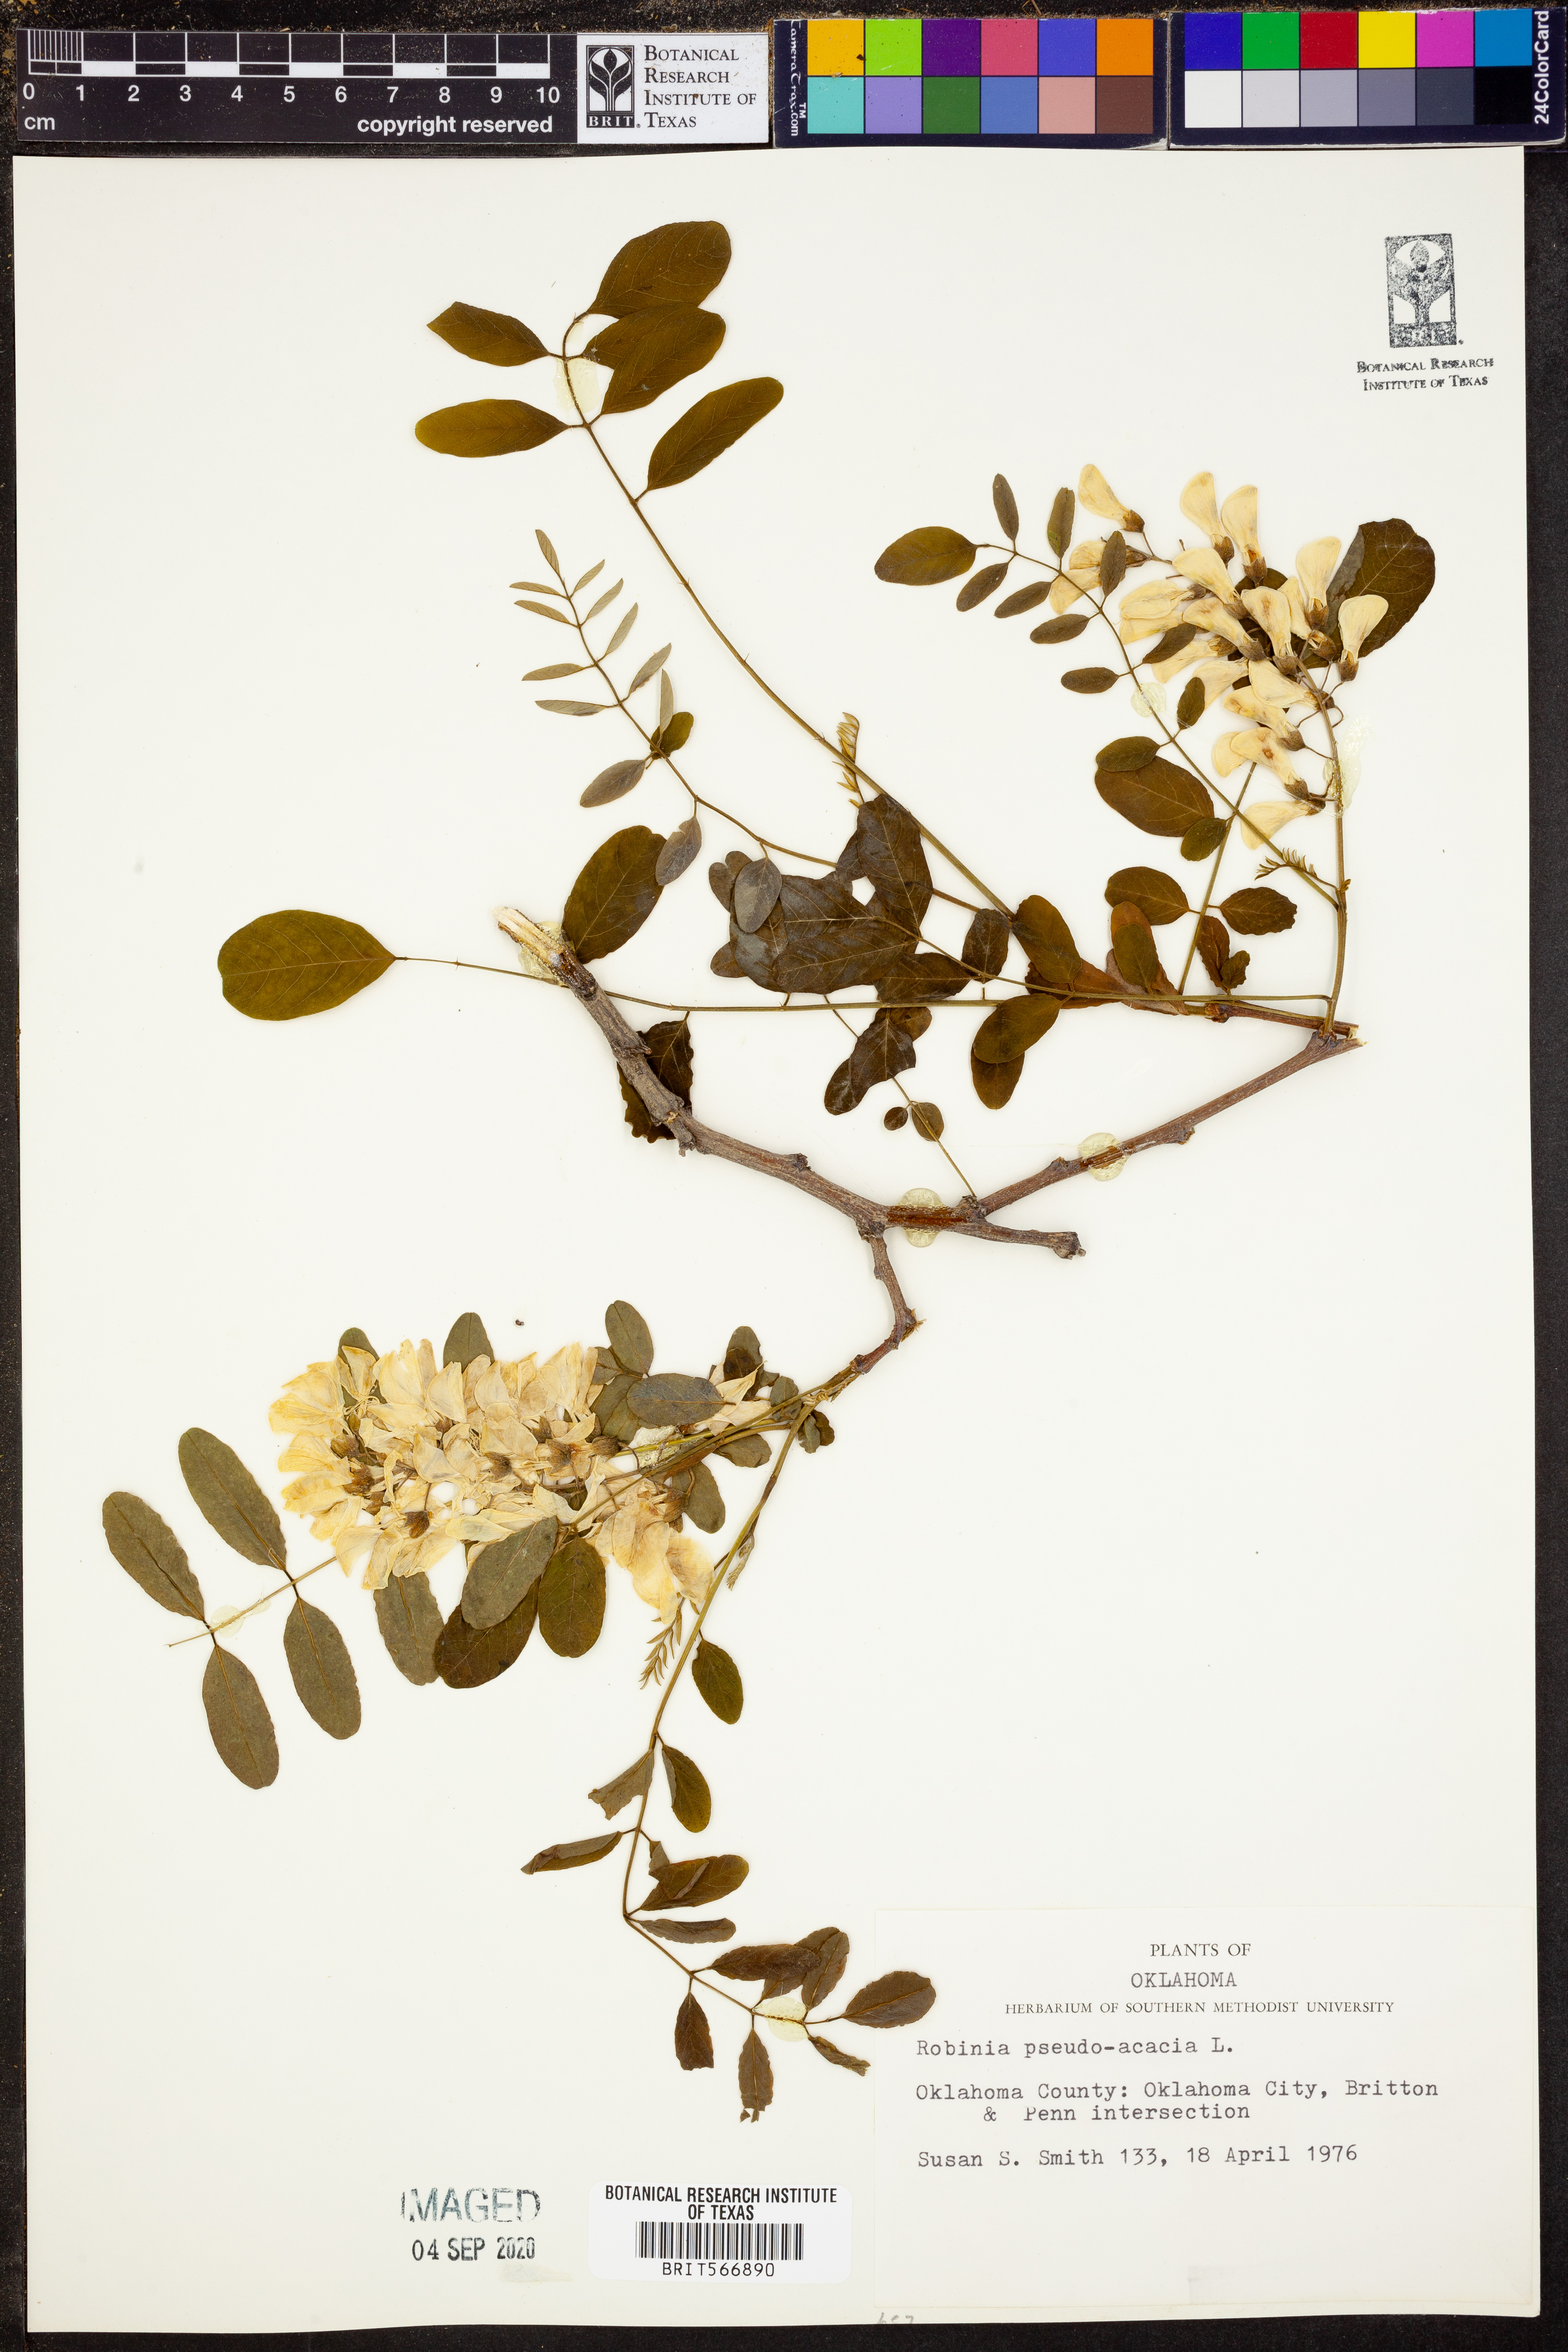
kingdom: Plantae
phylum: Tracheophyta
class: Magnoliopsida
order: Fabales
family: Fabaceae
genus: Robinia
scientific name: Robinia pseudoacacia
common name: Black locust
